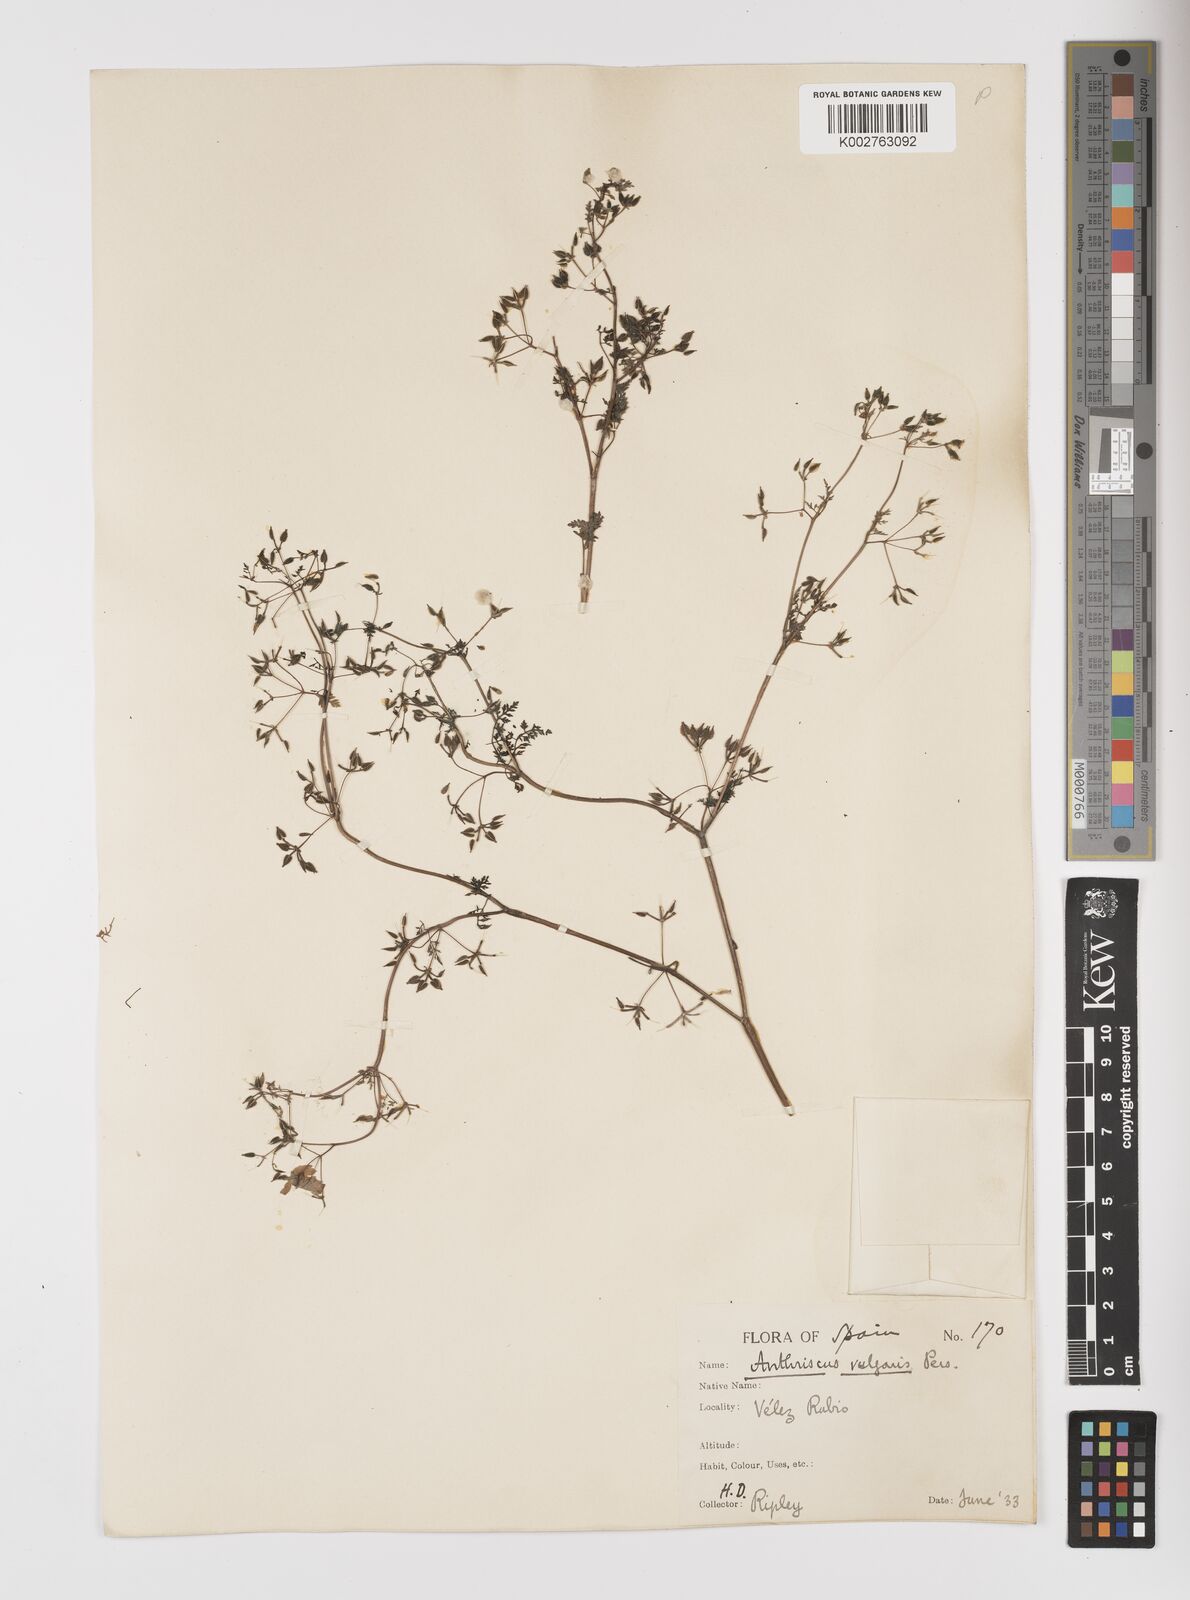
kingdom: Plantae
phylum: Tracheophyta
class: Magnoliopsida
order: Apiales
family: Apiaceae
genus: Anthriscus
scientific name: Anthriscus caucalis
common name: Bur chervil
